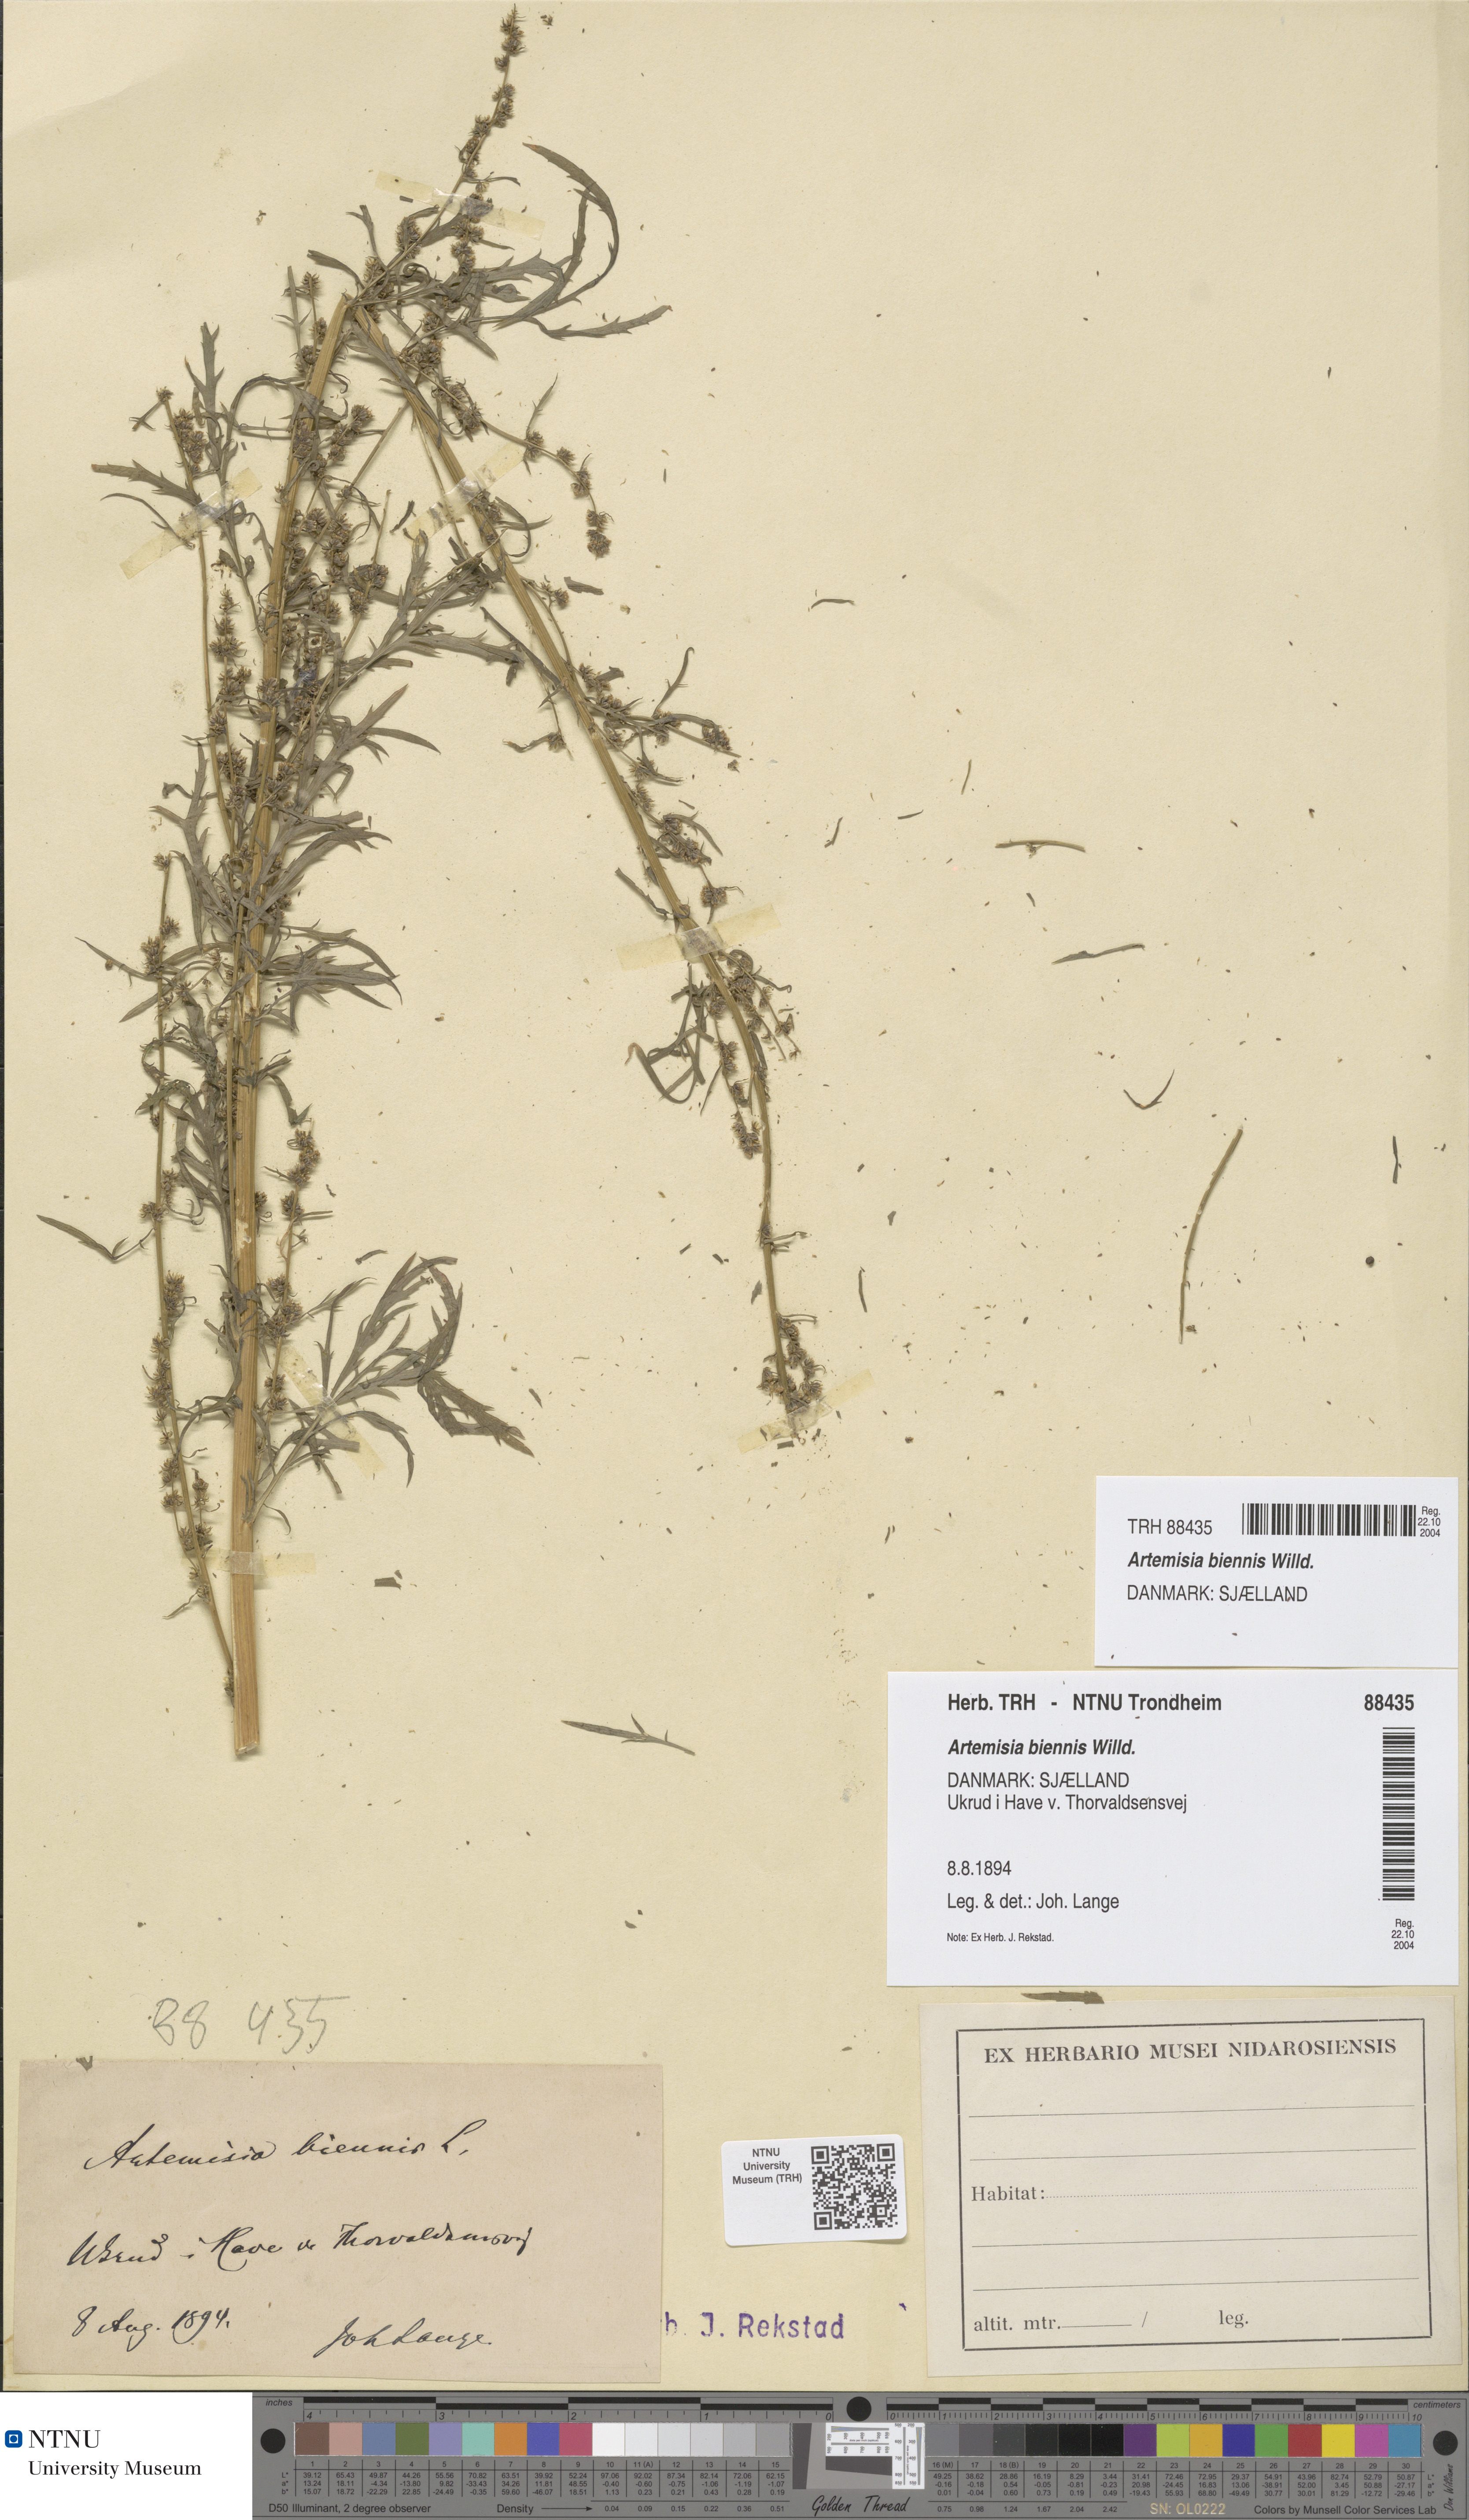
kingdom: Plantae
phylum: Tracheophyta
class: Magnoliopsida
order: Asterales
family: Asteraceae
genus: Artemisia
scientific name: Artemisia biennis
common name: Biennial wormwood
